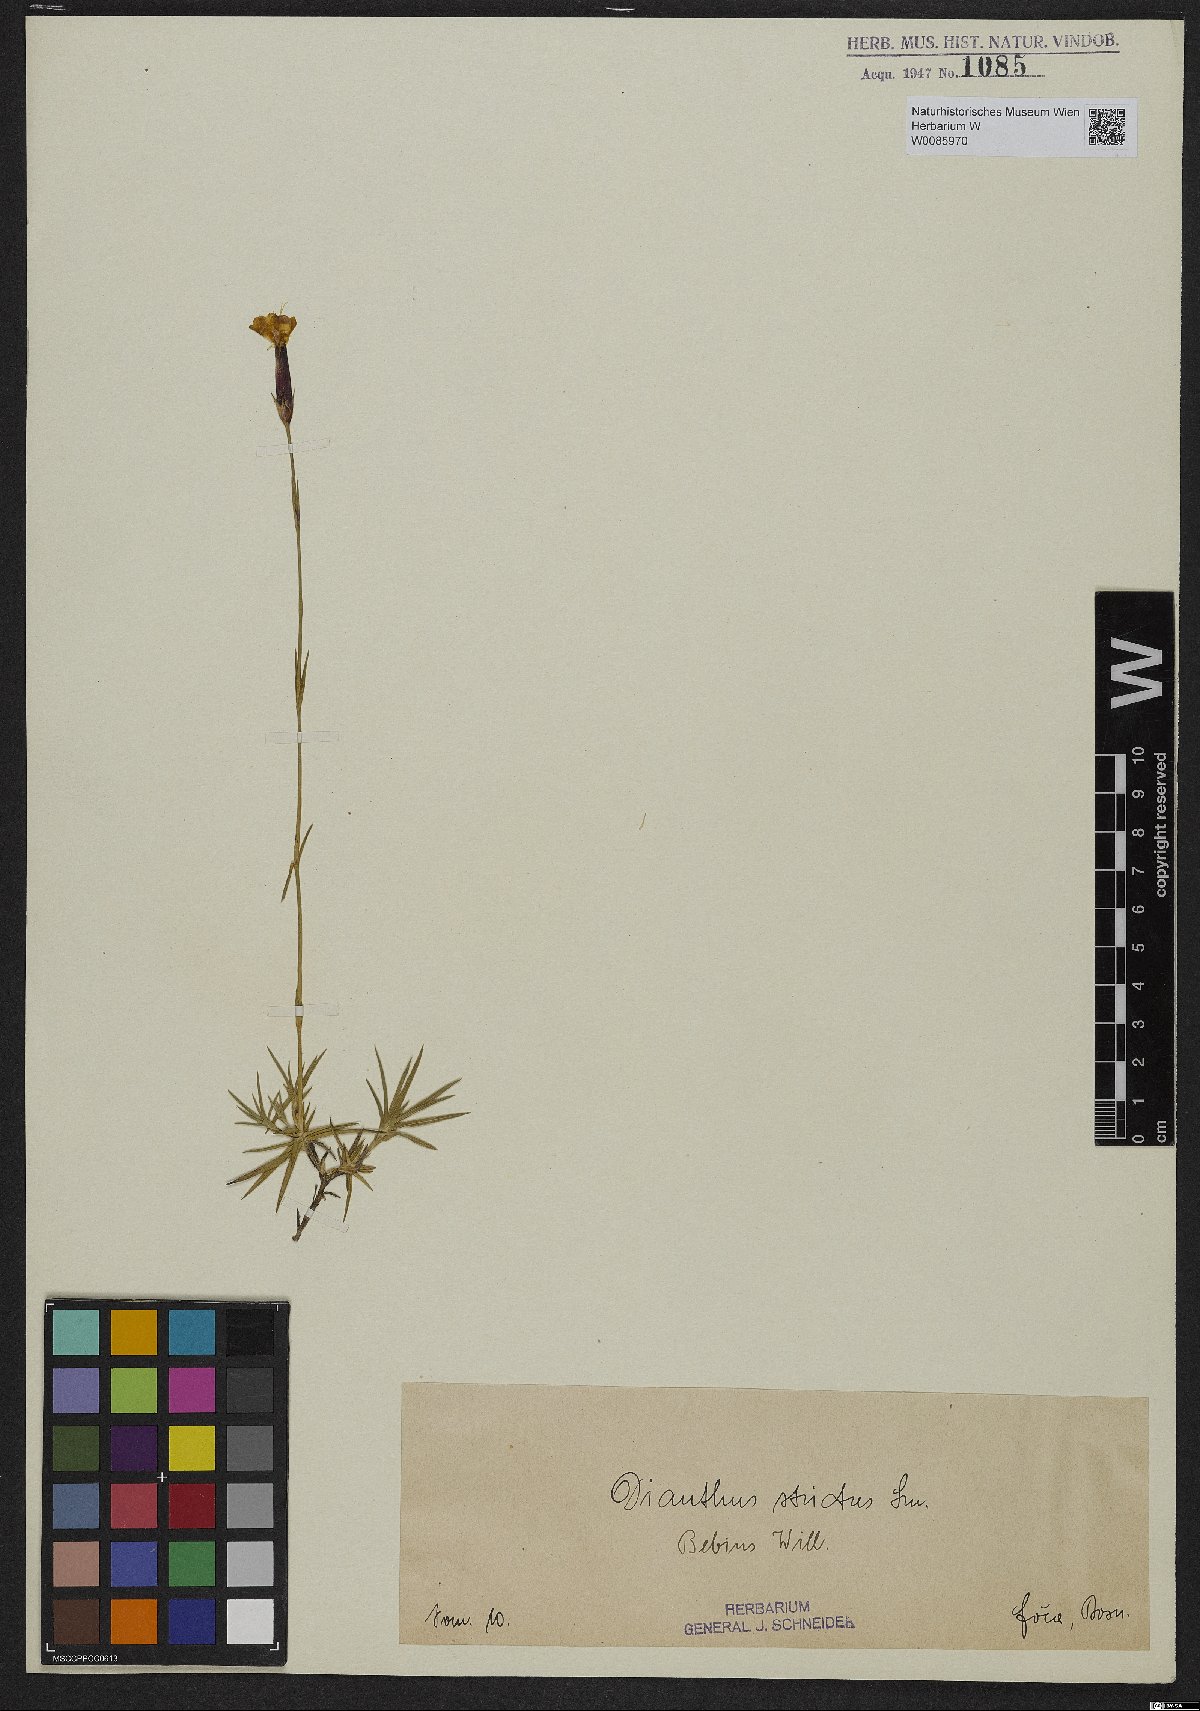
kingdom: Plantae
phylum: Tracheophyta
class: Magnoliopsida
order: Caryophyllales
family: Caryophyllaceae
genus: Dianthus
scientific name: Dianthus petraeus
